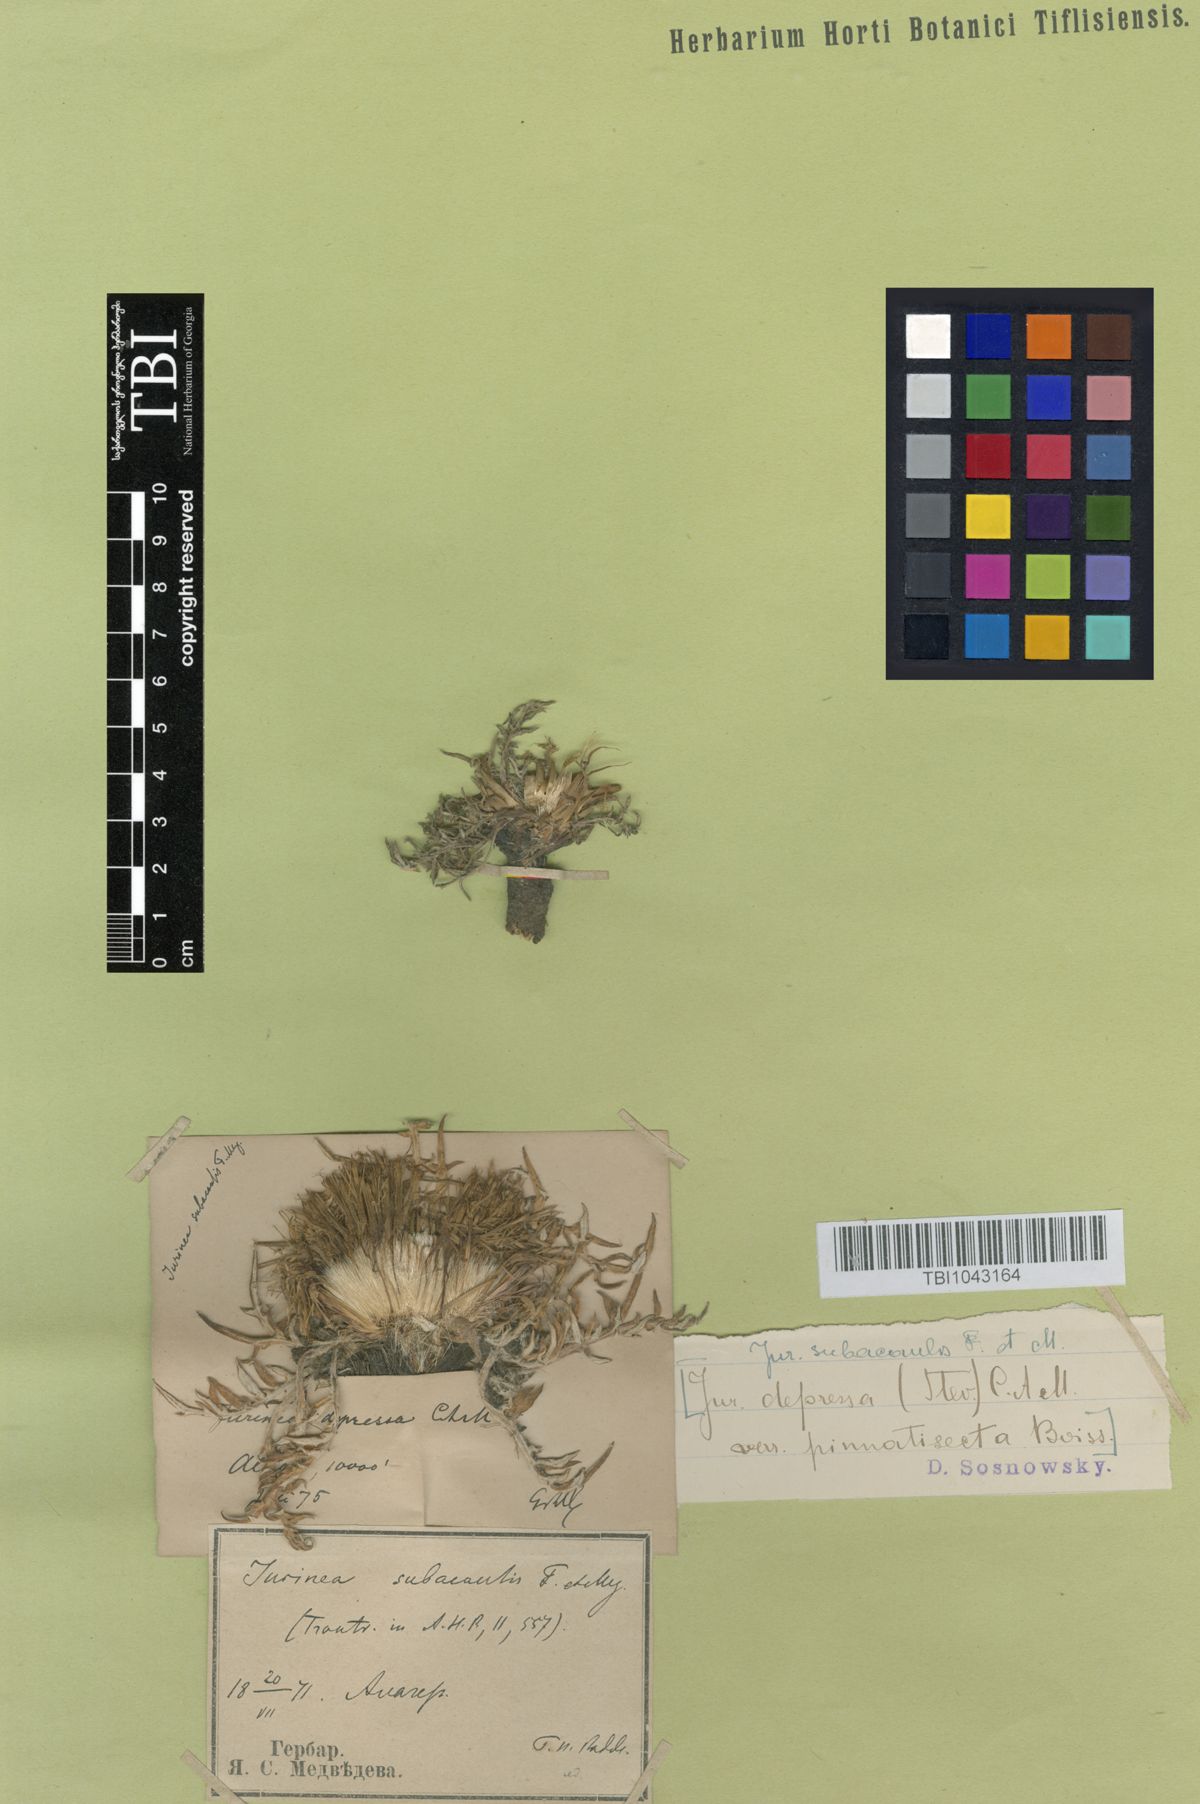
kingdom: Plantae
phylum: Tracheophyta
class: Magnoliopsida
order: Asterales
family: Asteraceae
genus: Jurinea
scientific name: Jurinea moschus
